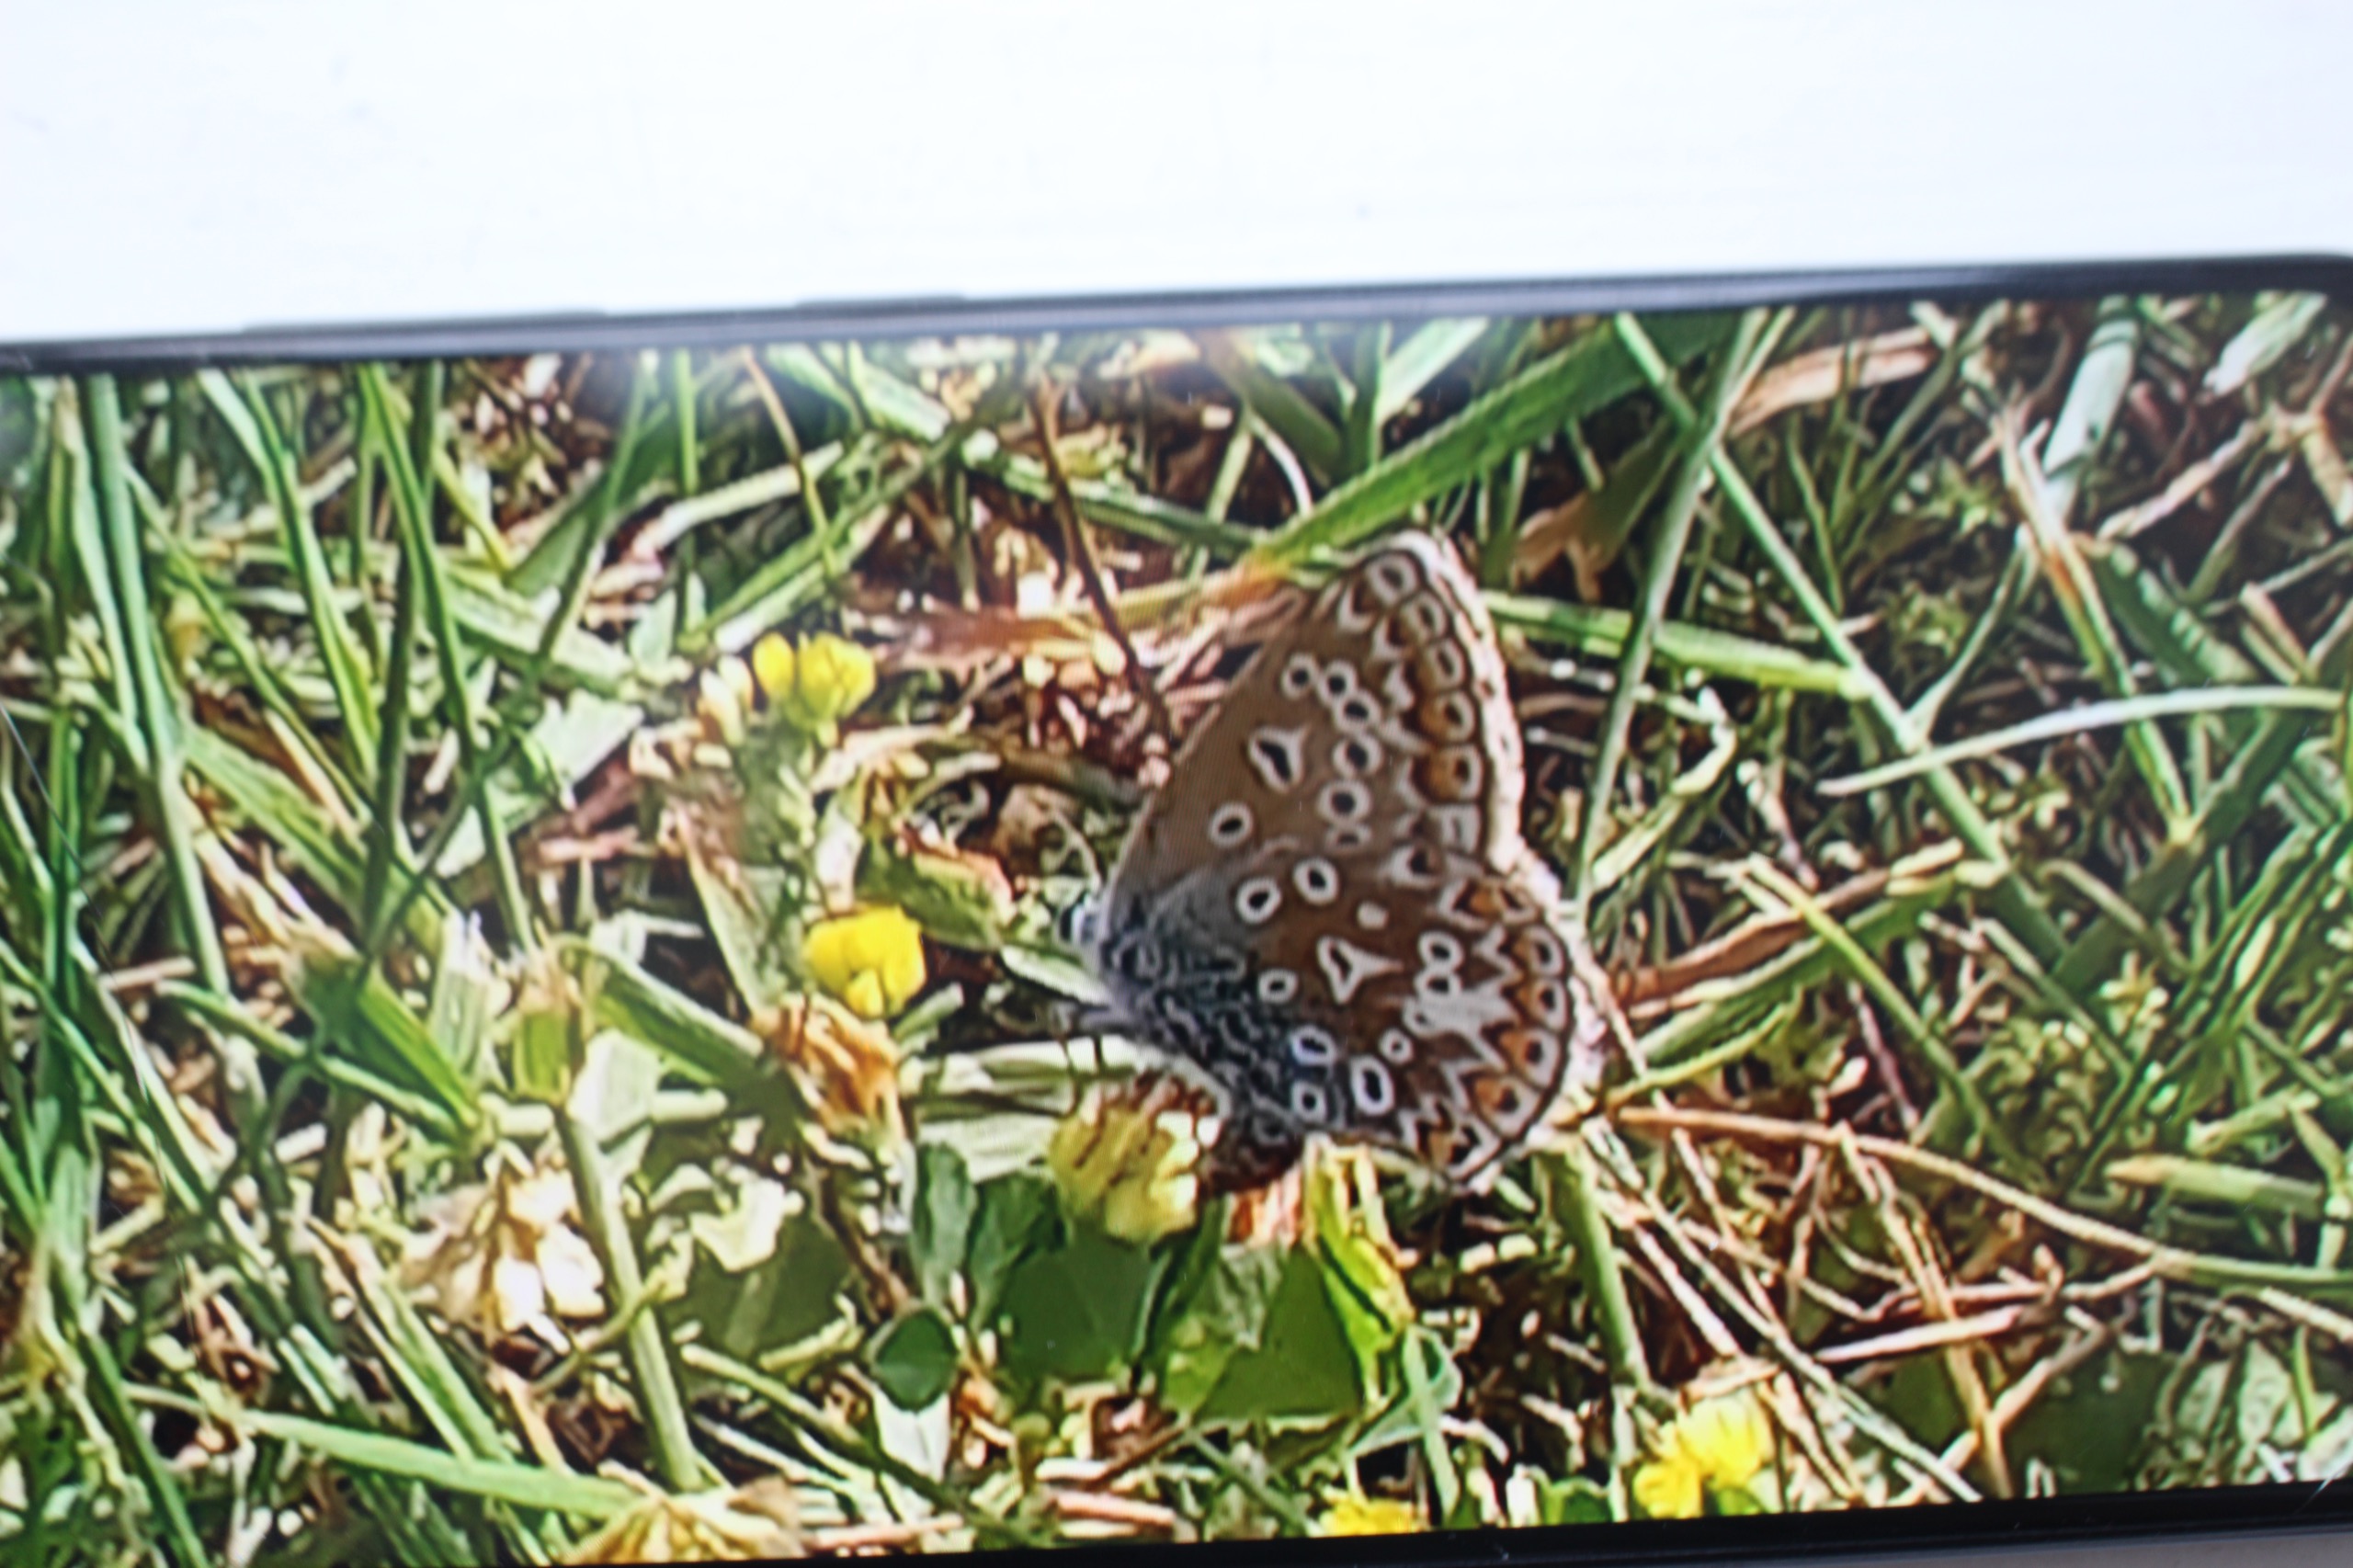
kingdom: Animalia
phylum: Arthropoda
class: Insecta
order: Lepidoptera
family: Lycaenidae
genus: Polyommatus
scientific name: Polyommatus icarus
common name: Almindelig blåfugl
